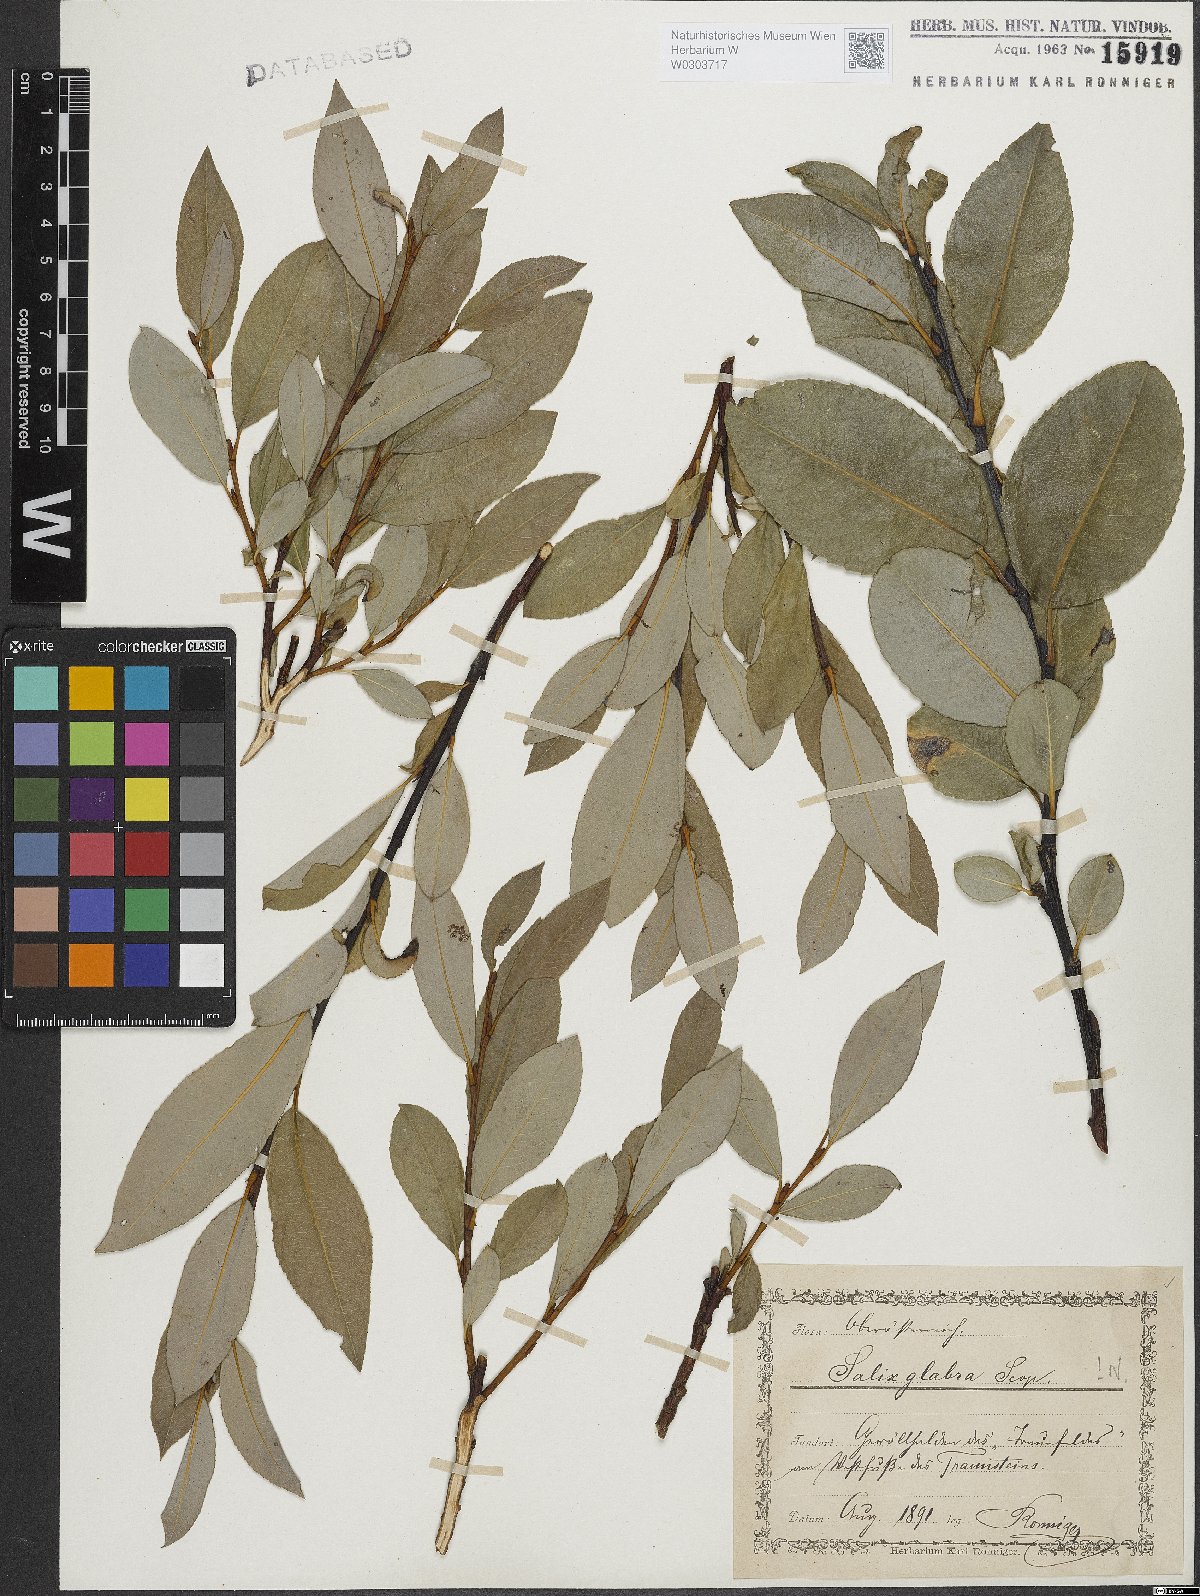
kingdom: Plantae
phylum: Tracheophyta
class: Magnoliopsida
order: Malpighiales
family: Salicaceae
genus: Salix
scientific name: Salix glabra
